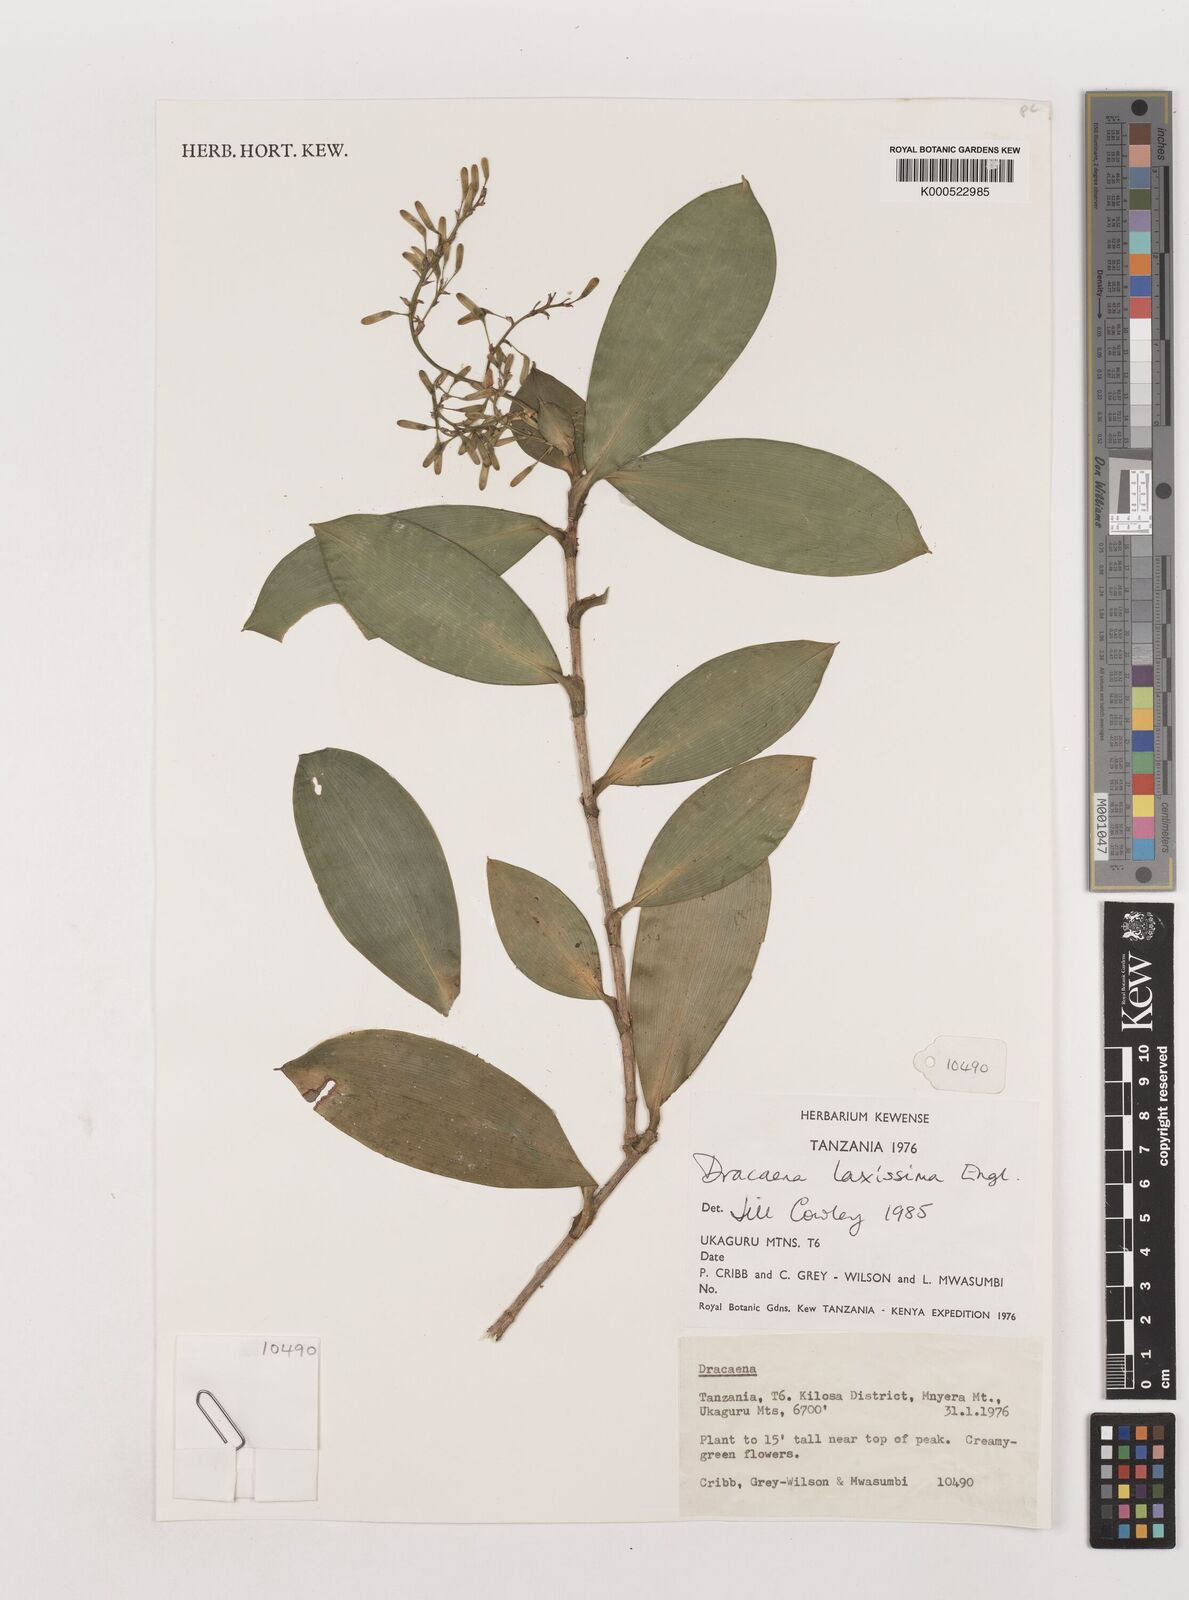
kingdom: Plantae
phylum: Tracheophyta
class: Liliopsida
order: Asparagales
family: Asparagaceae
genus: Dracaena
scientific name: Dracaena laxissima
